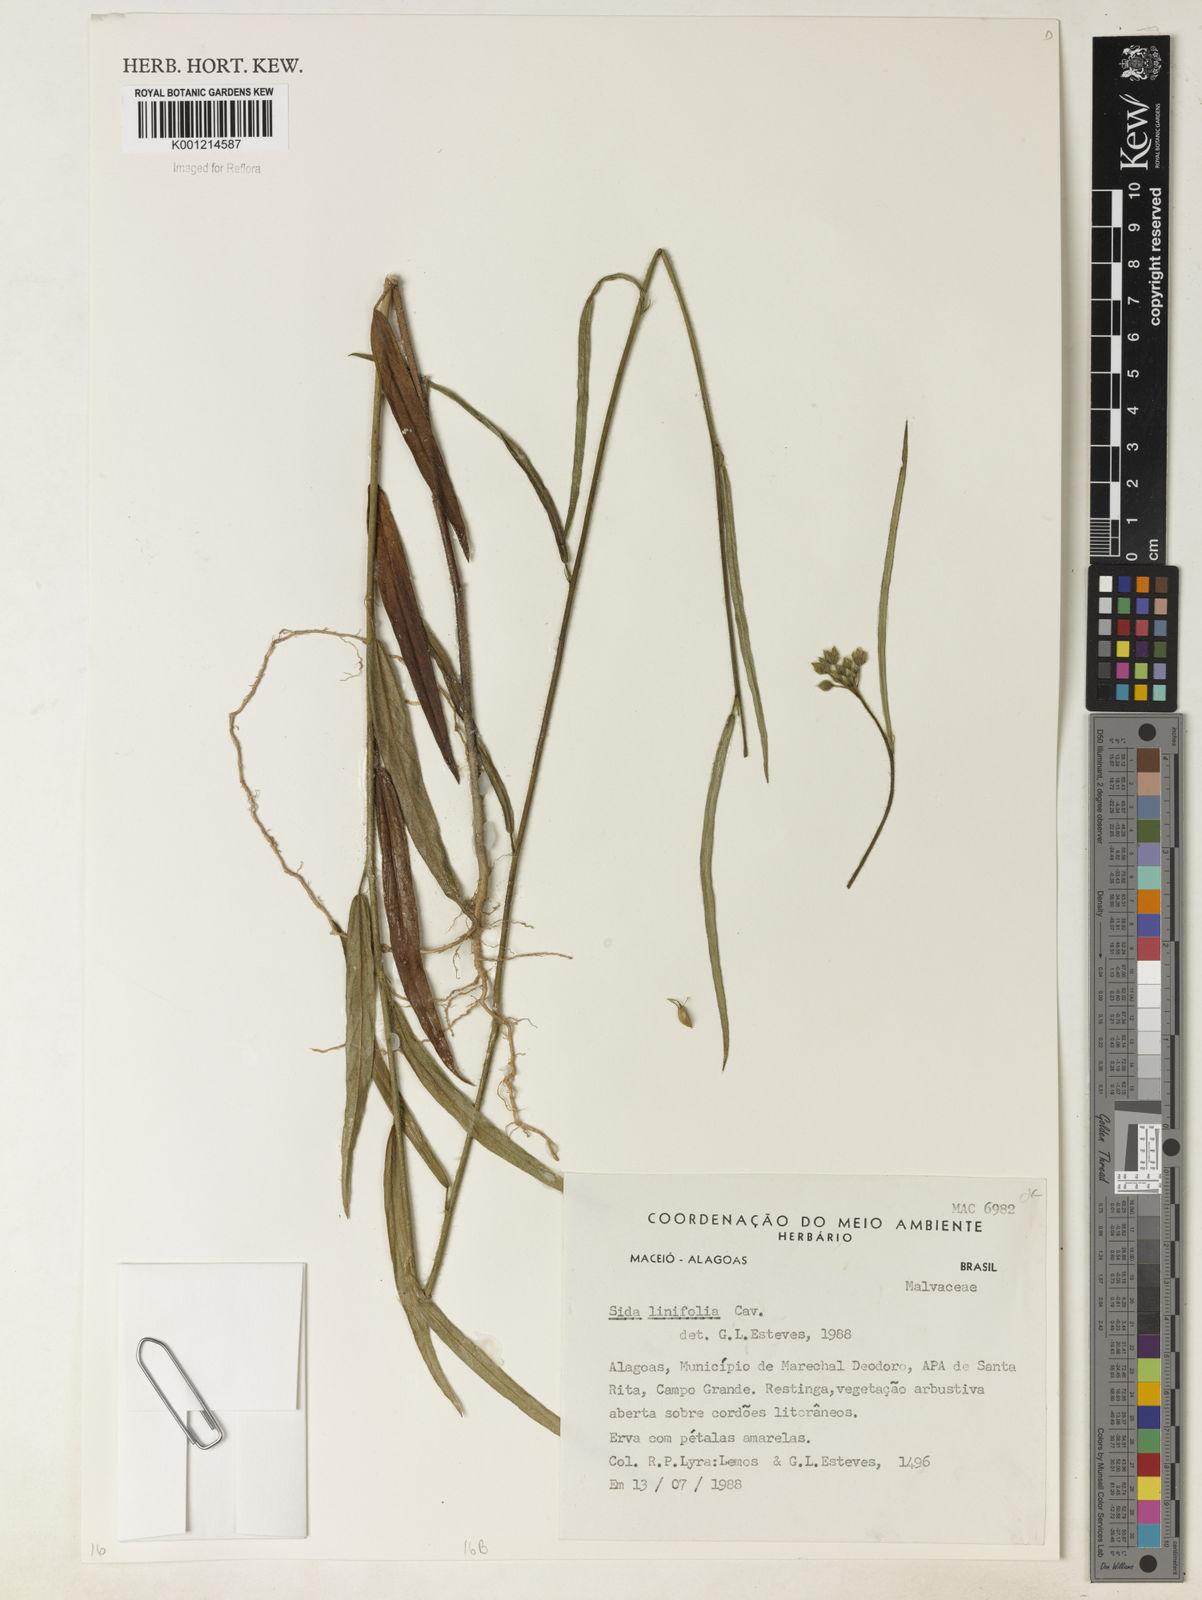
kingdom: Plantae
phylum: Tracheophyta
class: Magnoliopsida
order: Malvales
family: Malvaceae
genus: Sida
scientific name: Sida linifolia
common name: Flaxleaf fanpetals
